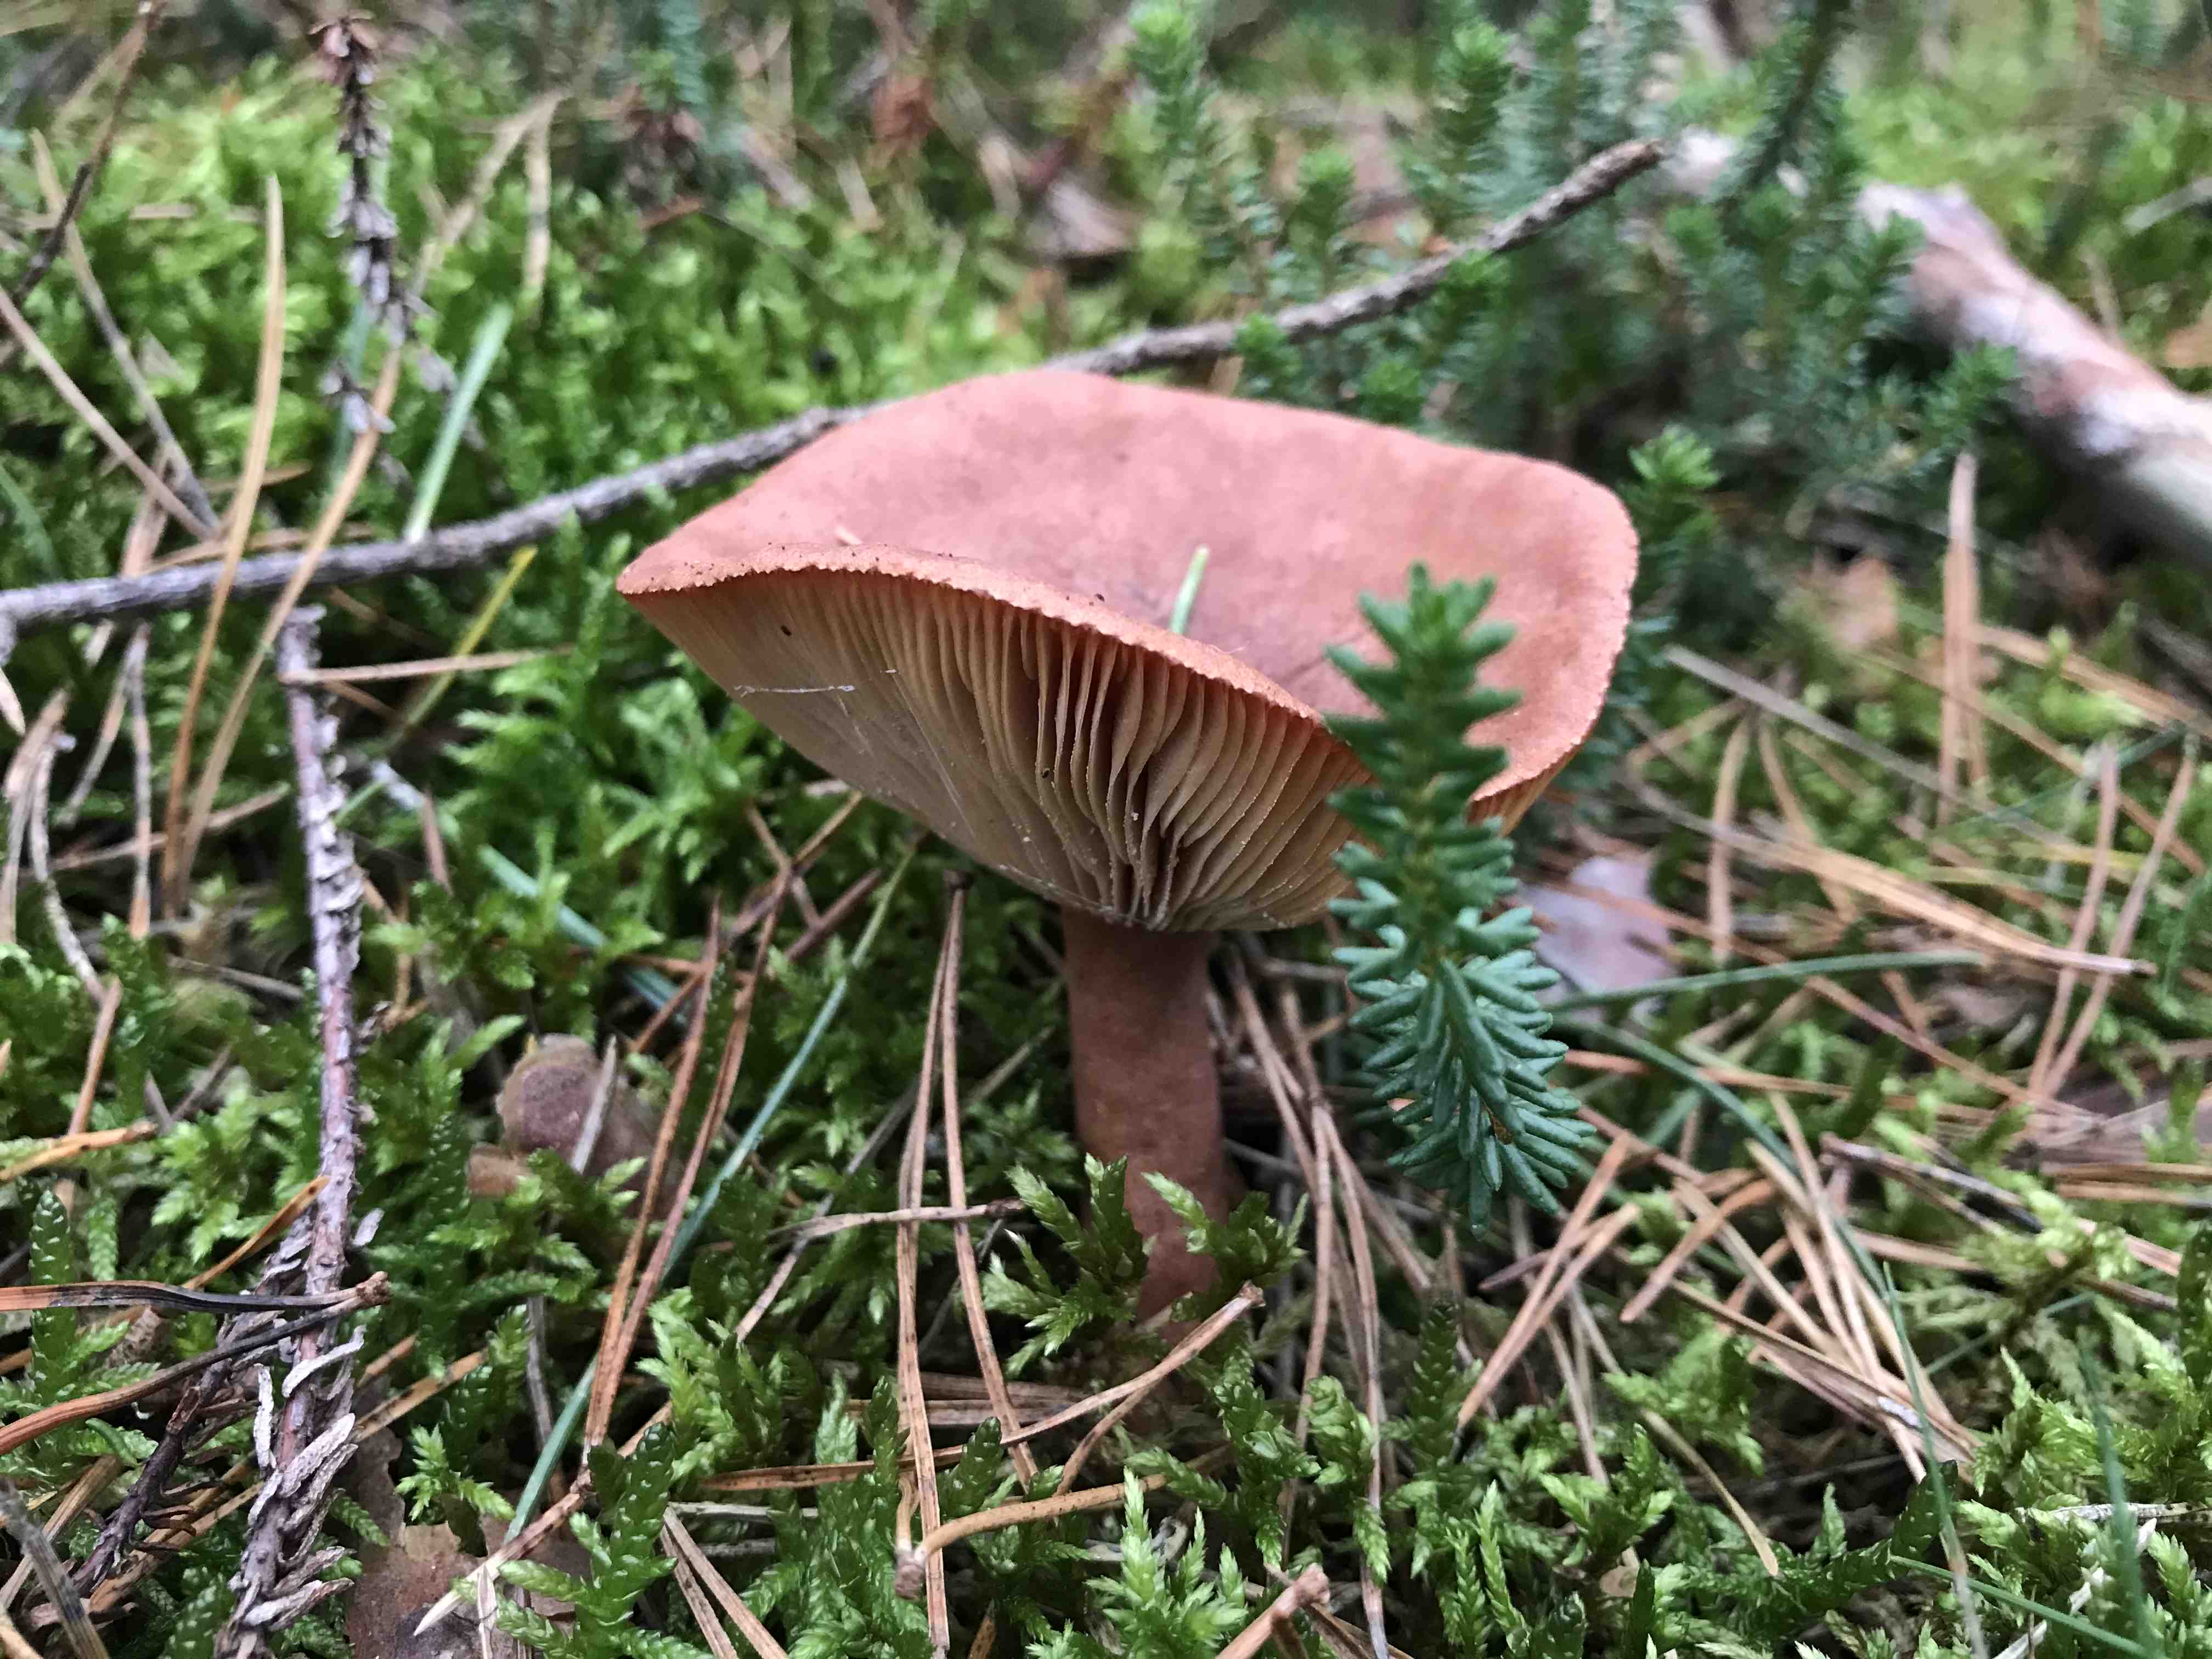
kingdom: Fungi
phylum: Basidiomycota
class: Agaricomycetes
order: Russulales
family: Russulaceae
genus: Lactarius
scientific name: Lactarius
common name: mælkehat
